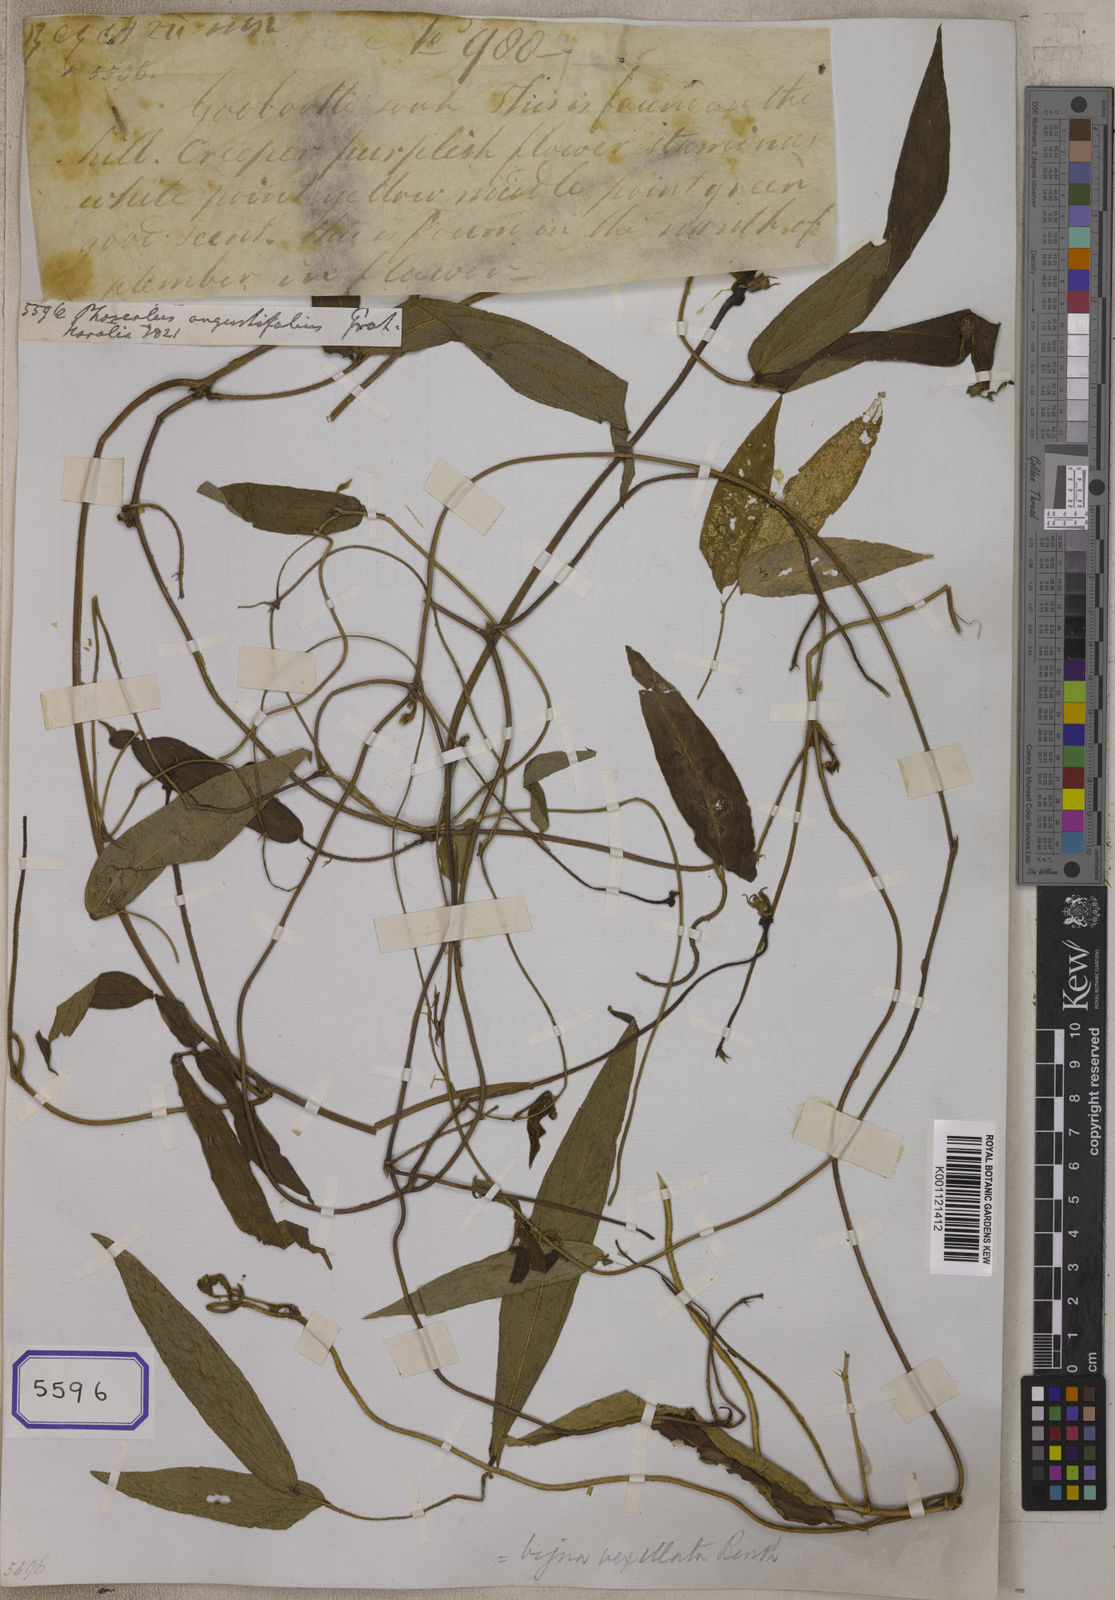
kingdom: Plantae
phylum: Tracheophyta
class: Magnoliopsida
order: Fabales
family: Fabaceae
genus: Phaseolus
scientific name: Phaseolus
